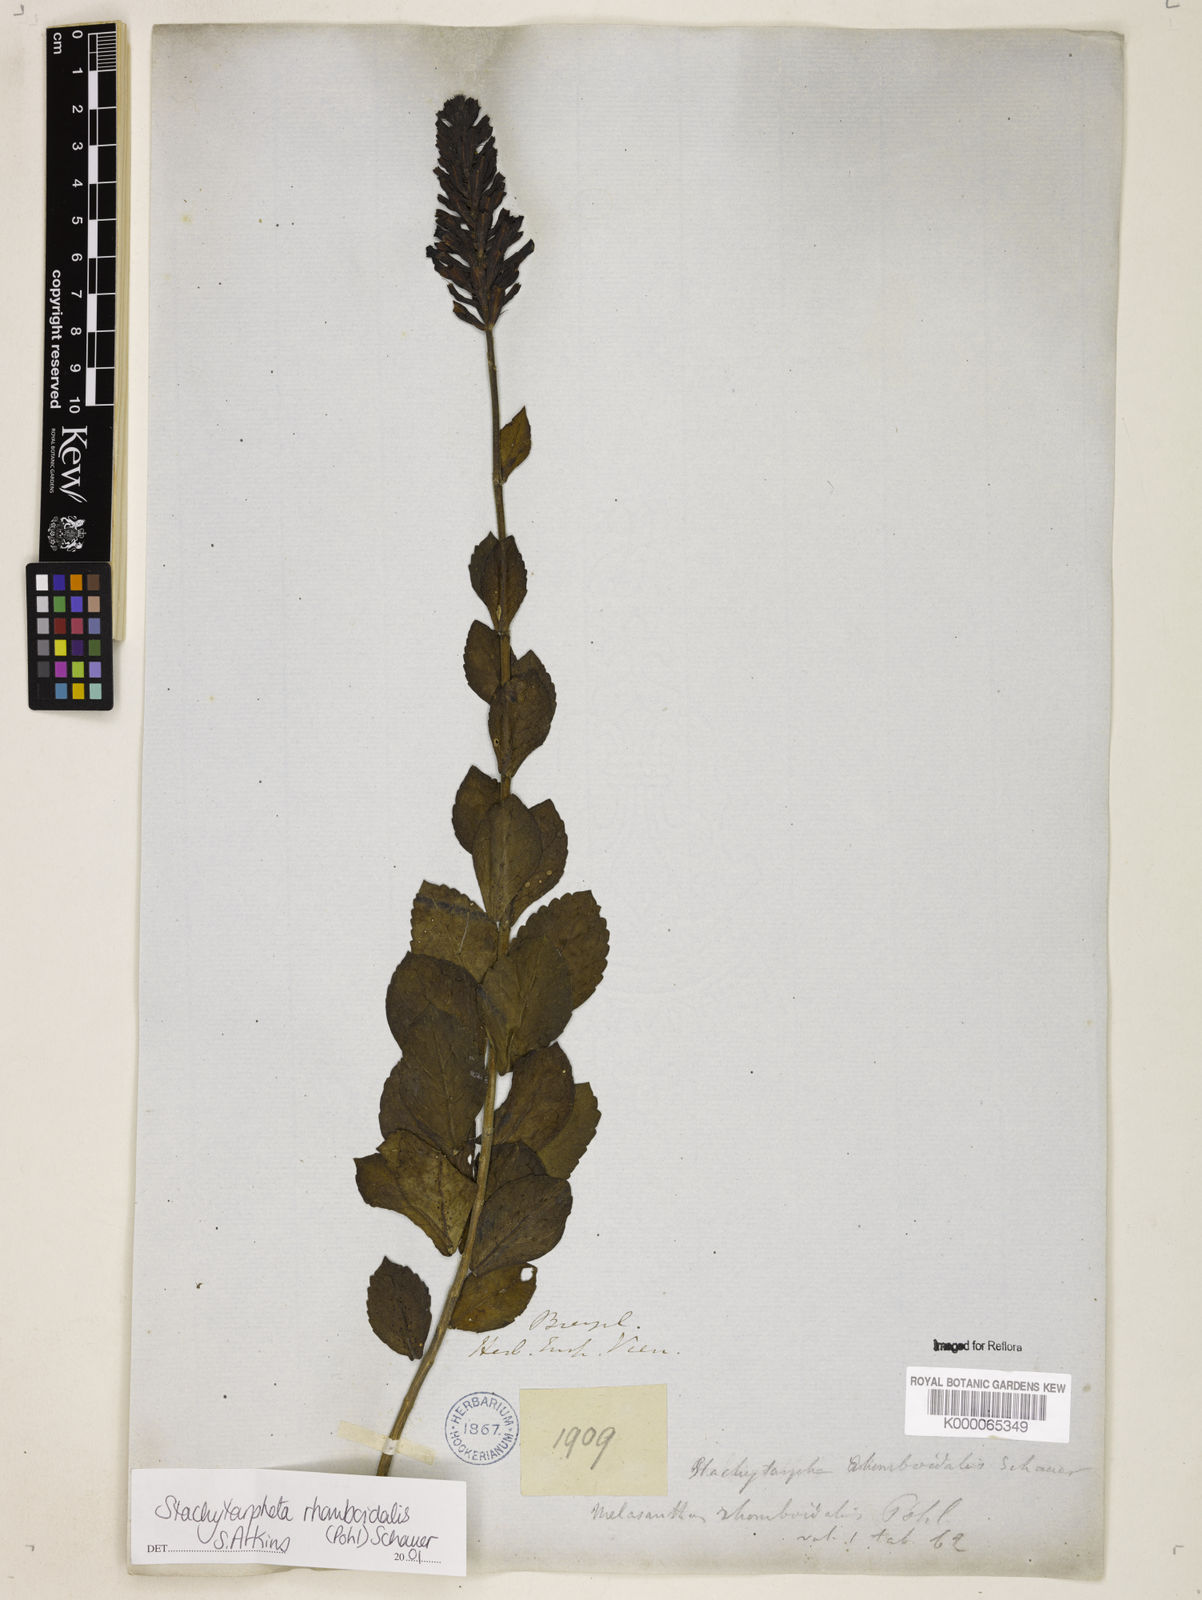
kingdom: Plantae
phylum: Tracheophyta
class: Magnoliopsida
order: Lamiales
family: Verbenaceae
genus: Stachytarpheta
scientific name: Stachytarpheta rhomboidalis
